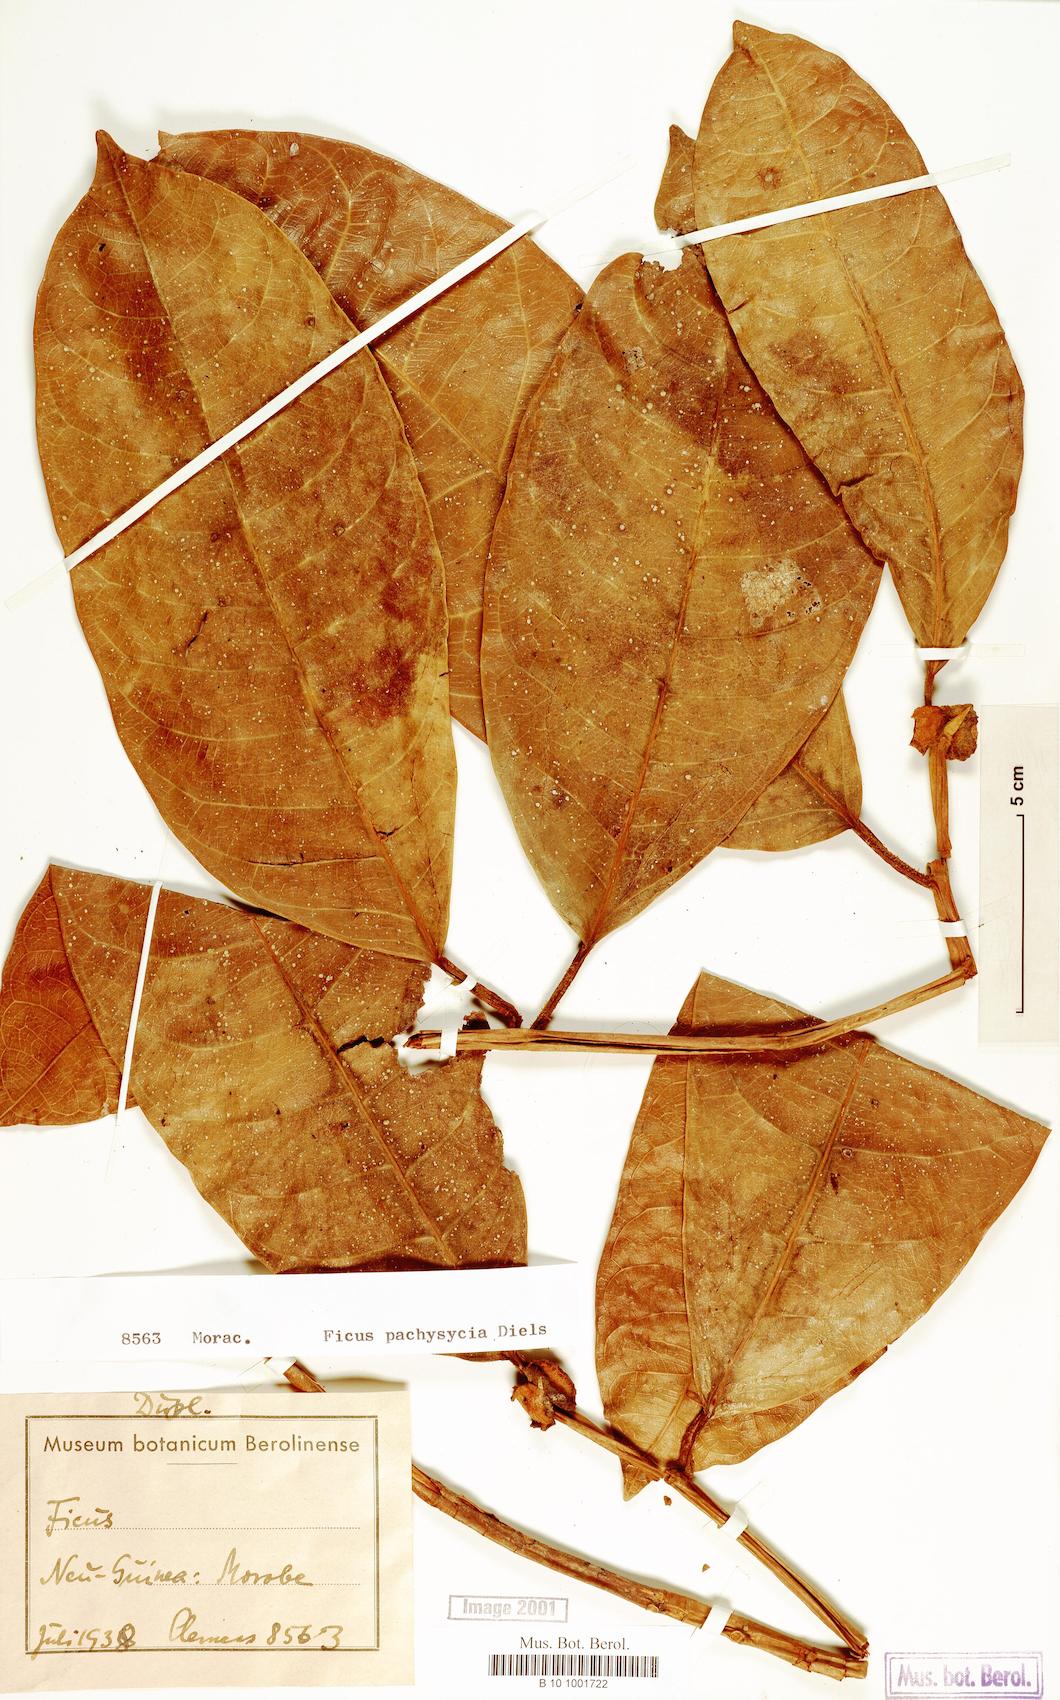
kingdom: Plantae
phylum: Tracheophyta
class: Magnoliopsida
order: Rosales
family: Moraceae
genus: Ficus
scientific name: Ficus pachysycia
